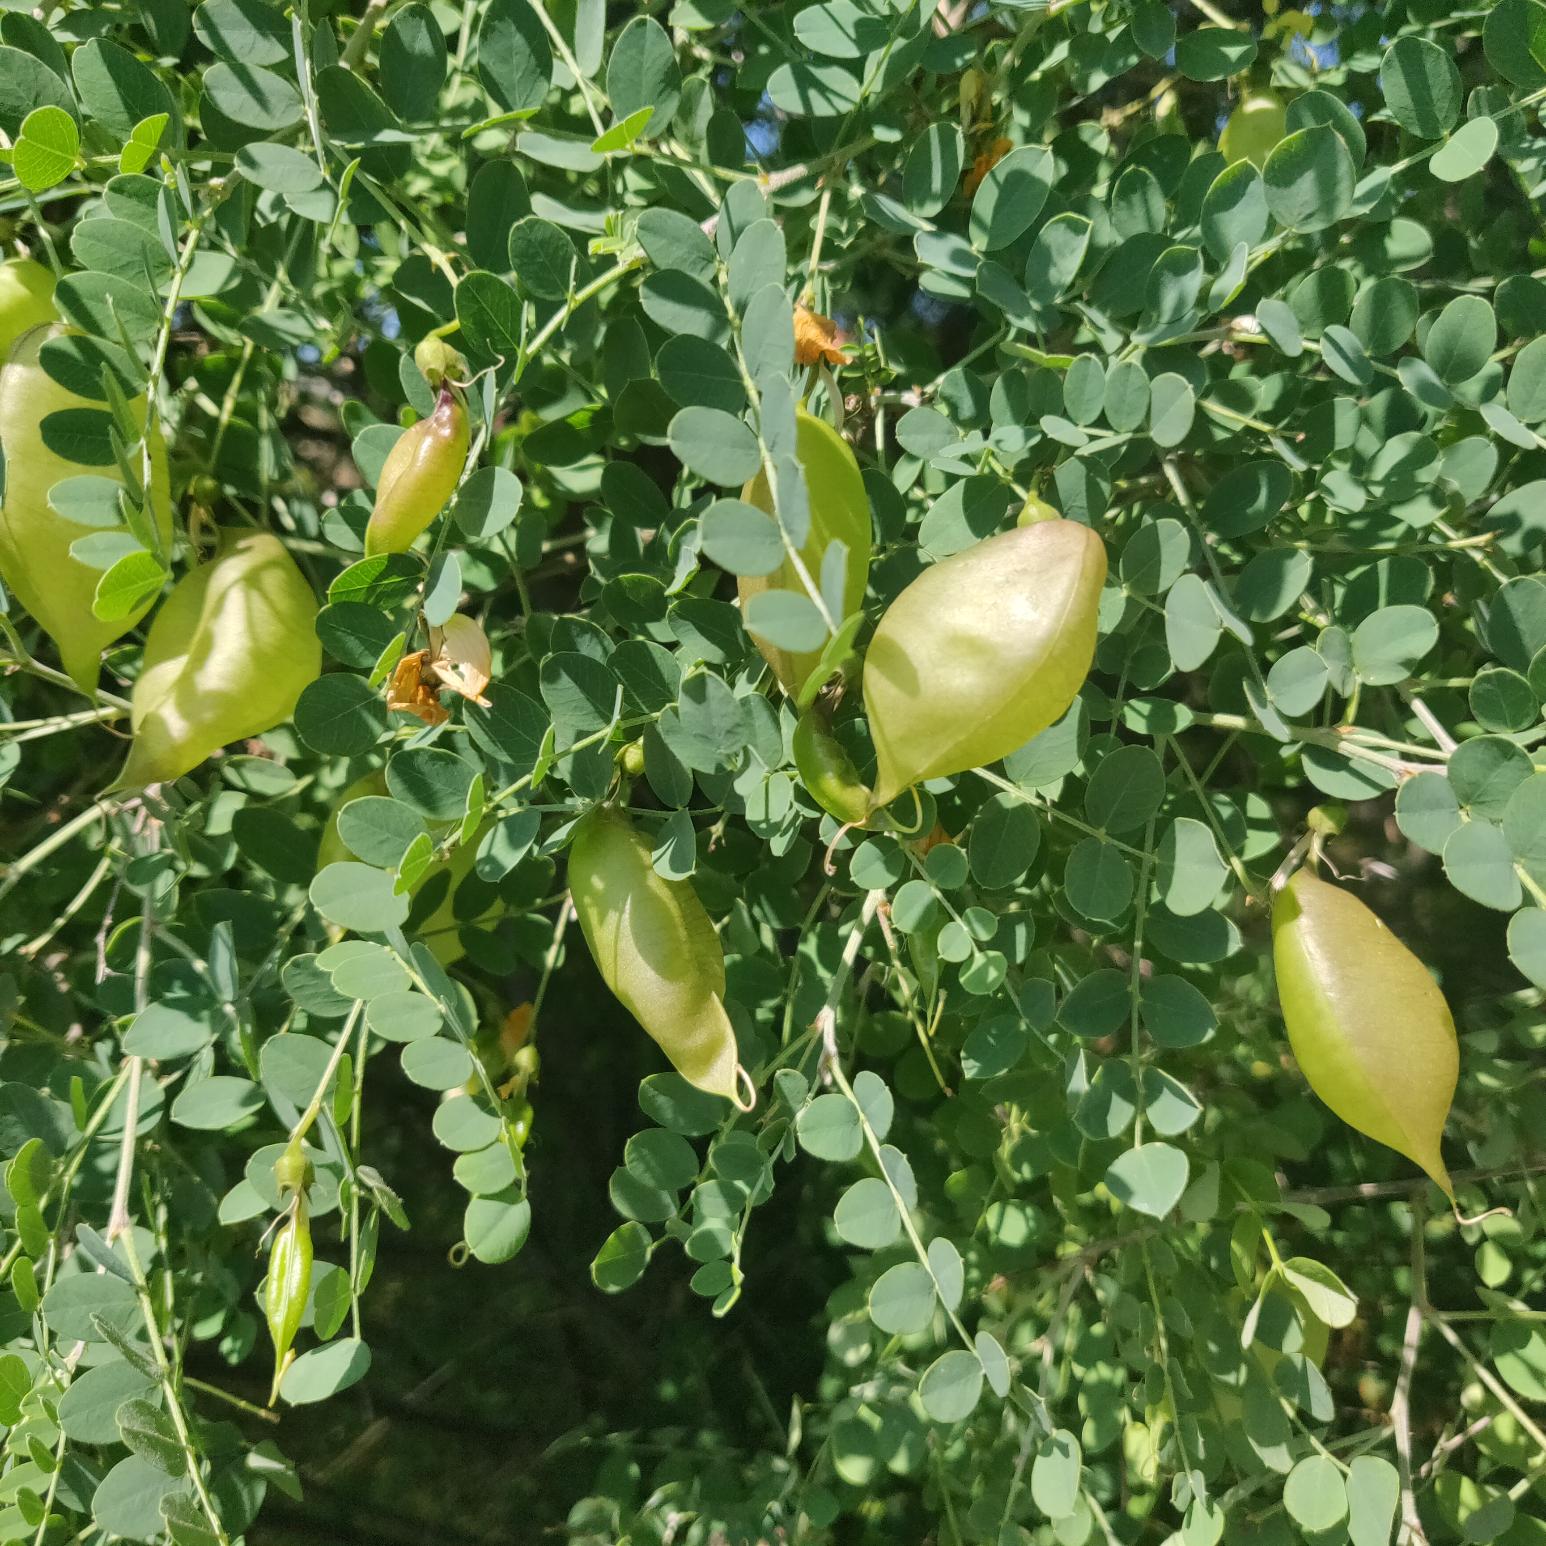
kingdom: Plantae
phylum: Tracheophyta
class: Magnoliopsida
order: Fabales
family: Fabaceae
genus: Colutea
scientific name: Colutea arborescens
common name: Almindelig blærebælg
